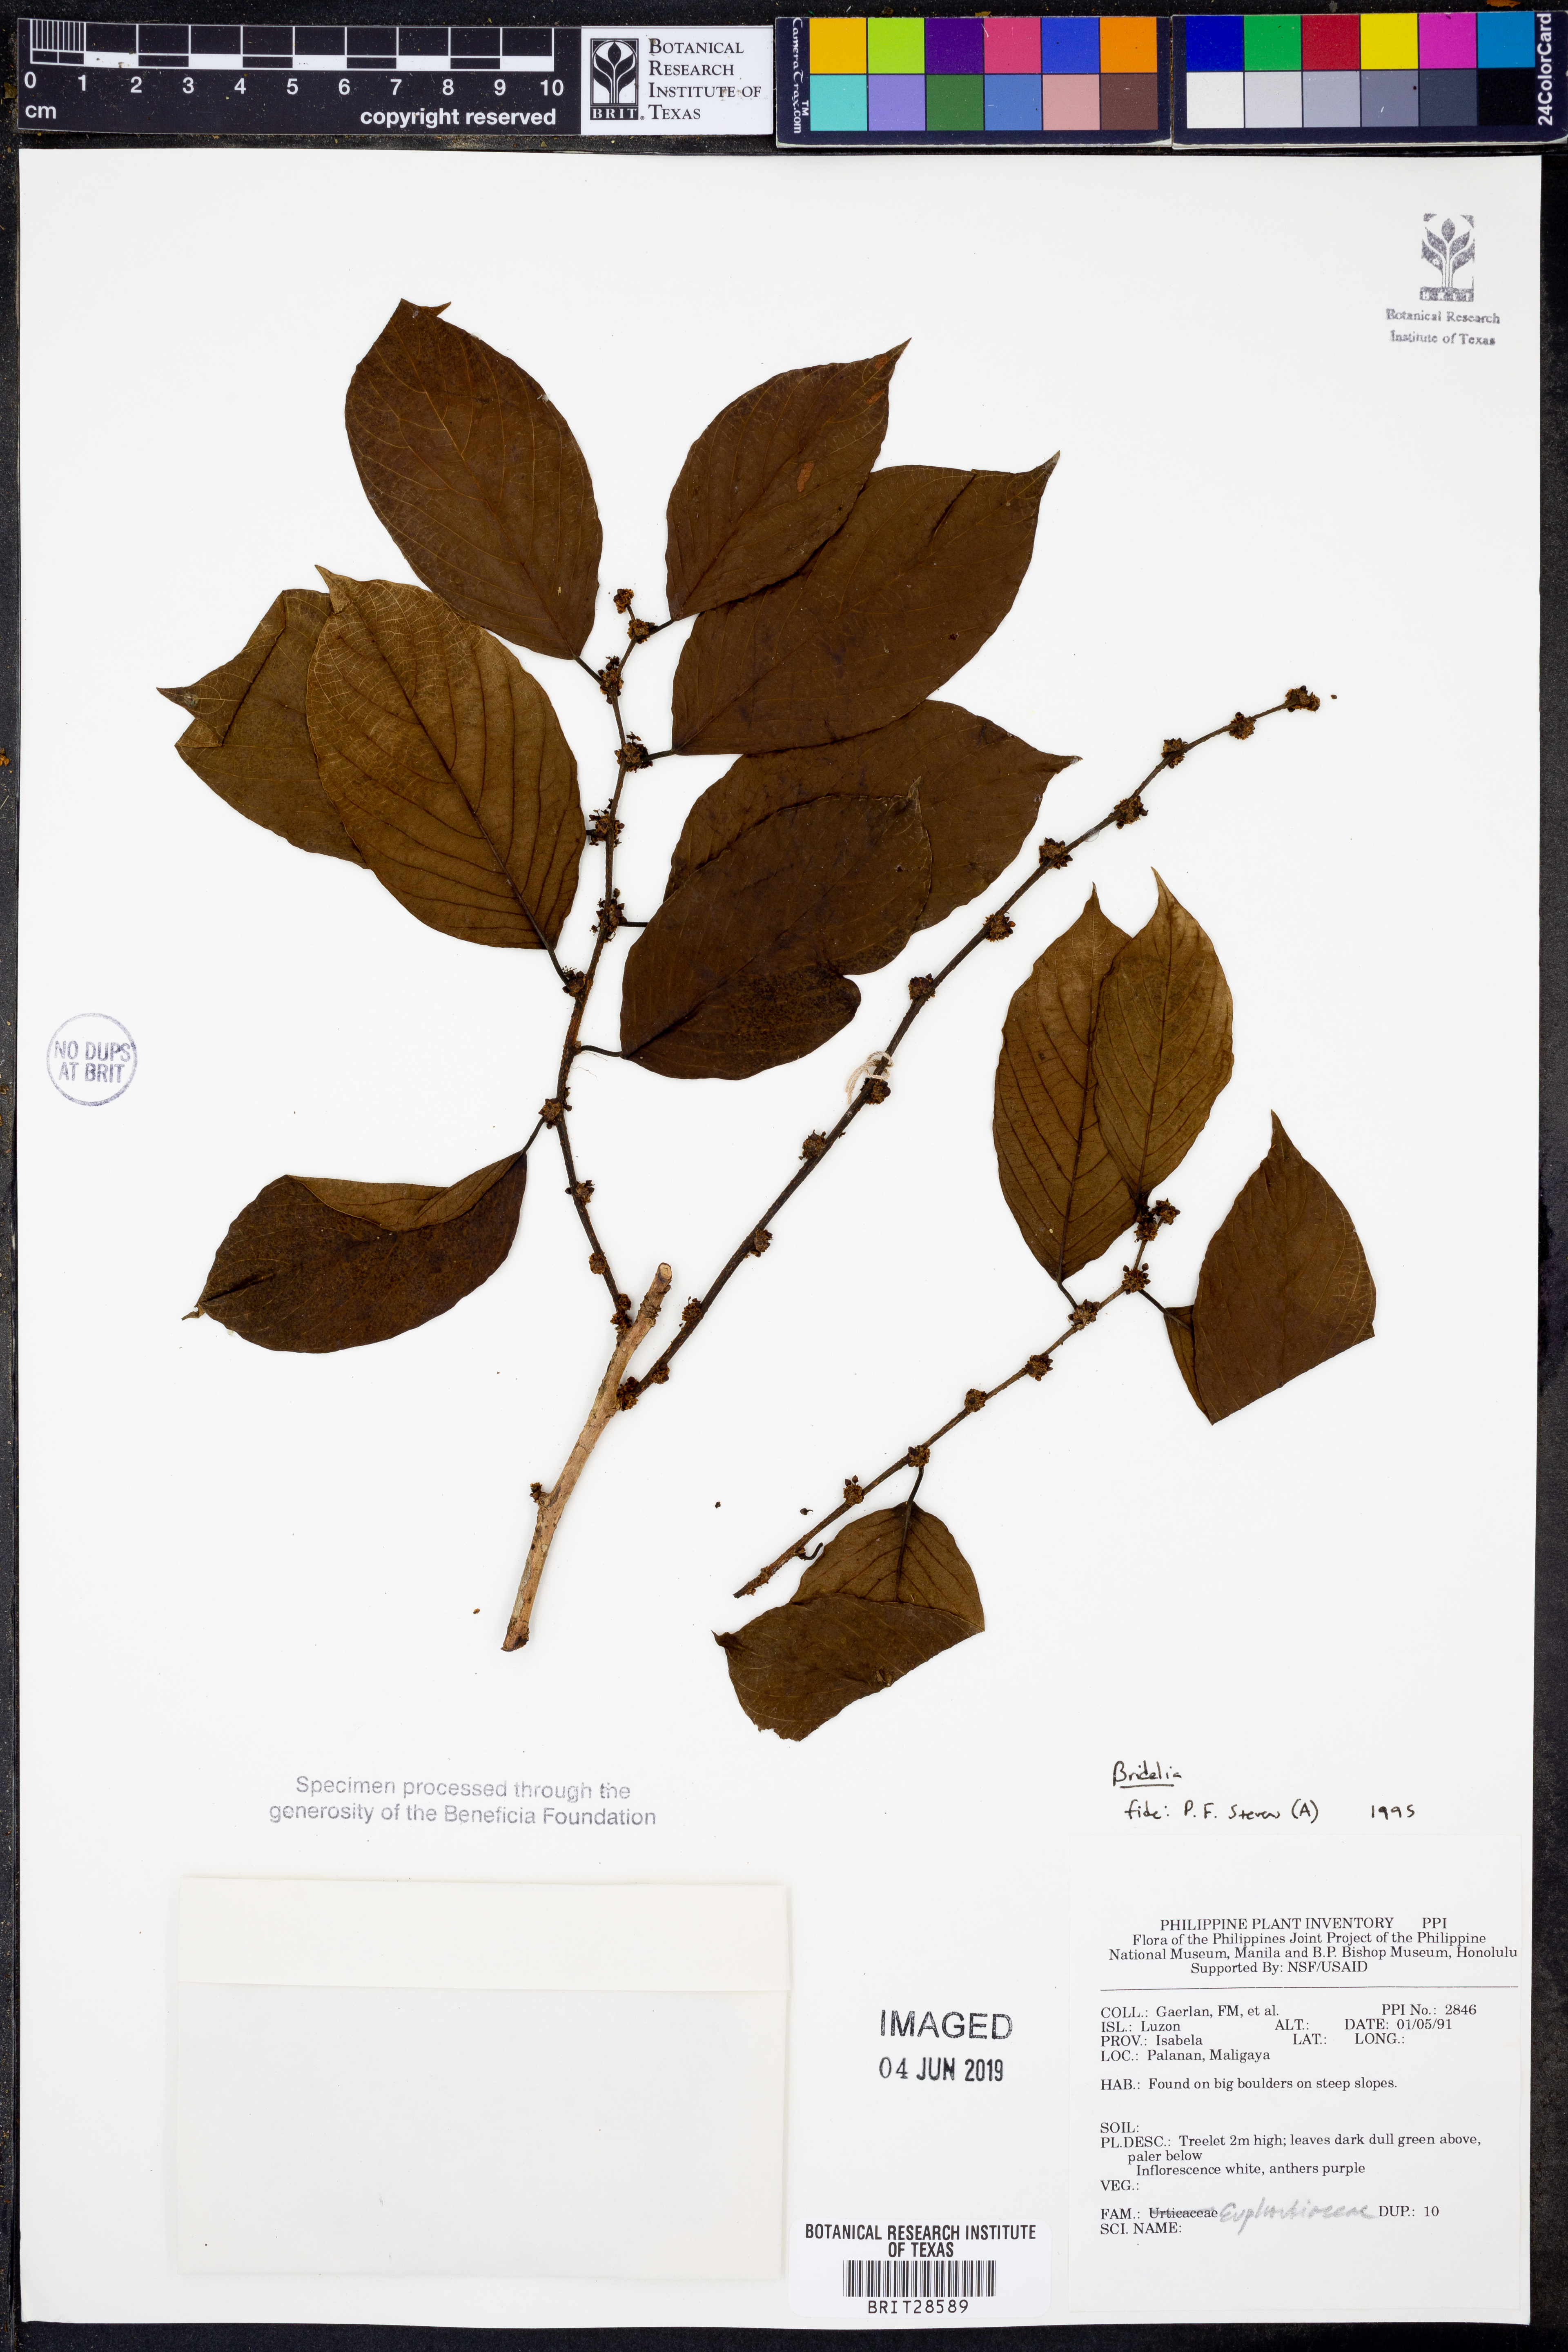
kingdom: Plantae
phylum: Tracheophyta
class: Magnoliopsida
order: Malpighiales
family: Phyllanthaceae
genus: Bridelia
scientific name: Bridelia
